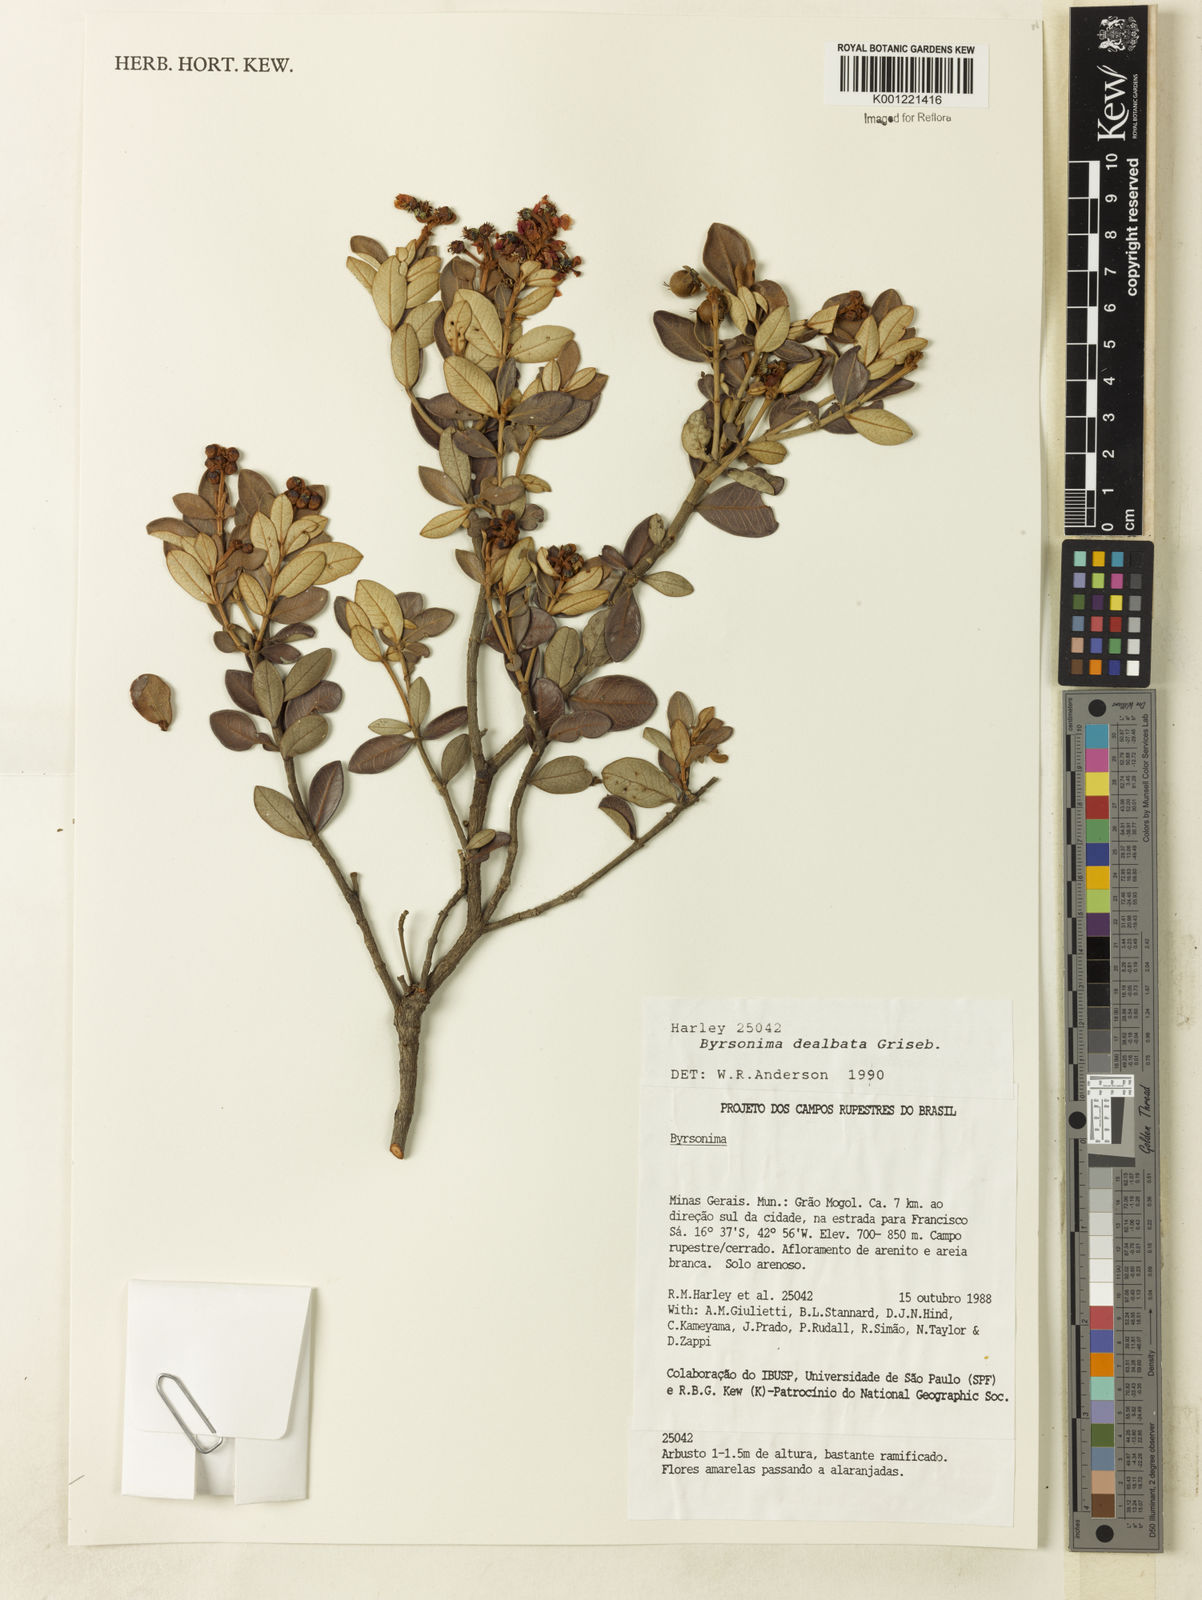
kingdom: Plantae
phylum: Tracheophyta
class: Magnoliopsida
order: Malpighiales
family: Malpighiaceae
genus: Byrsonima
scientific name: Byrsonima dealbata
